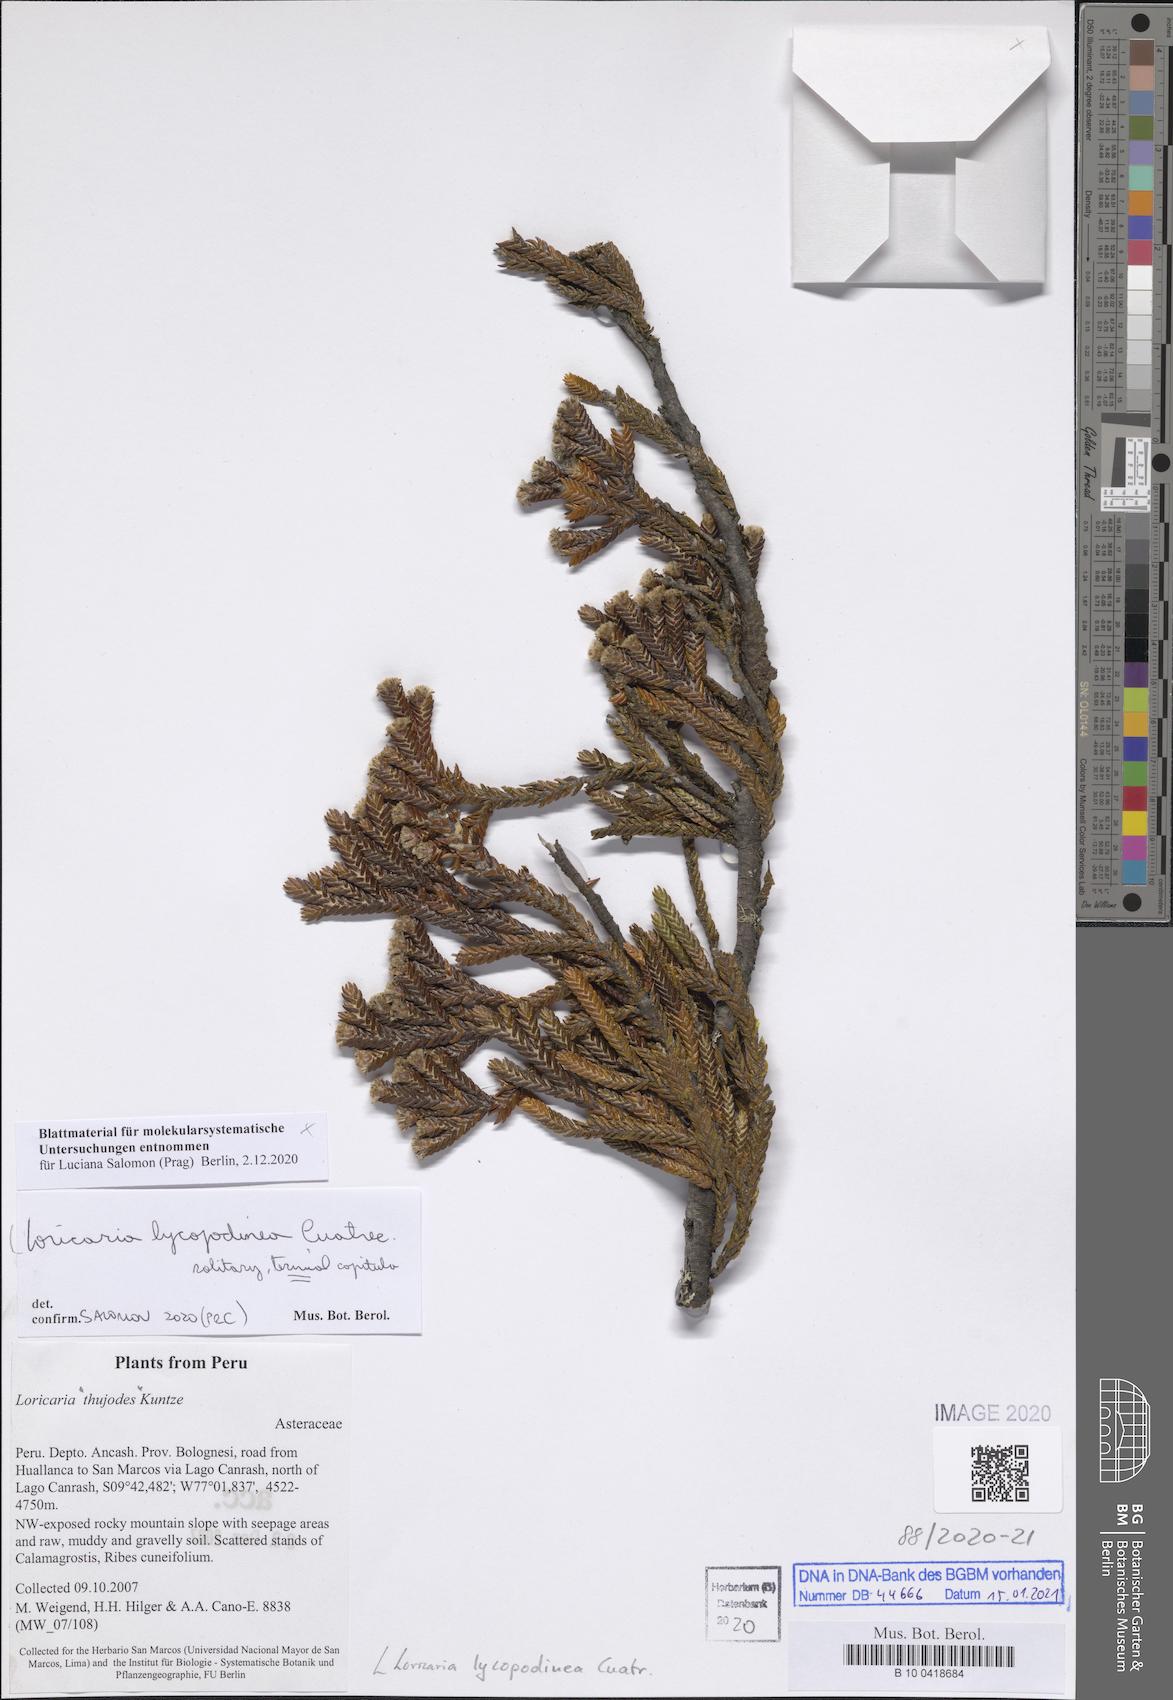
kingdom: Plantae
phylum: Tracheophyta
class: Magnoliopsida
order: Asterales
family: Asteraceae
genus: Andicolea
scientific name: Andicolea lycopodinea
